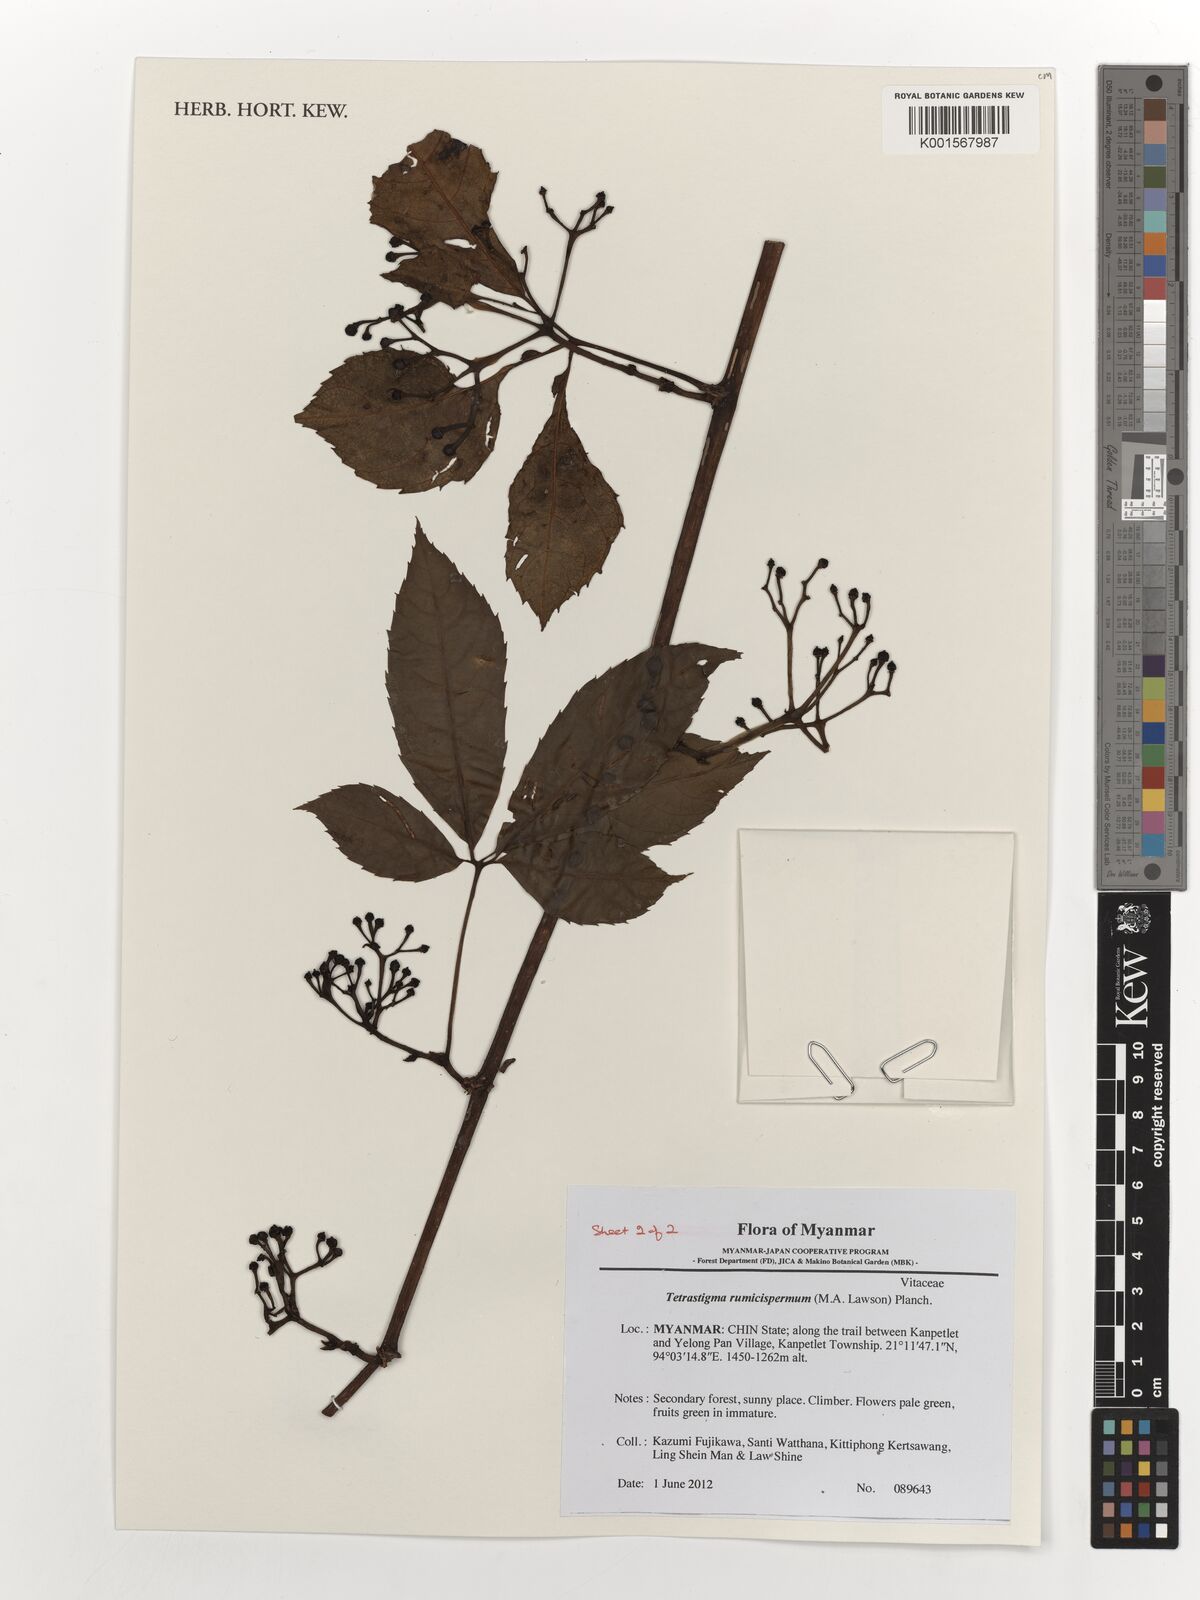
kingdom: Plantae
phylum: Tracheophyta
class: Magnoliopsida
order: Vitales
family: Vitaceae
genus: Tetrastigma
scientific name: Tetrastigma rumicispermum
